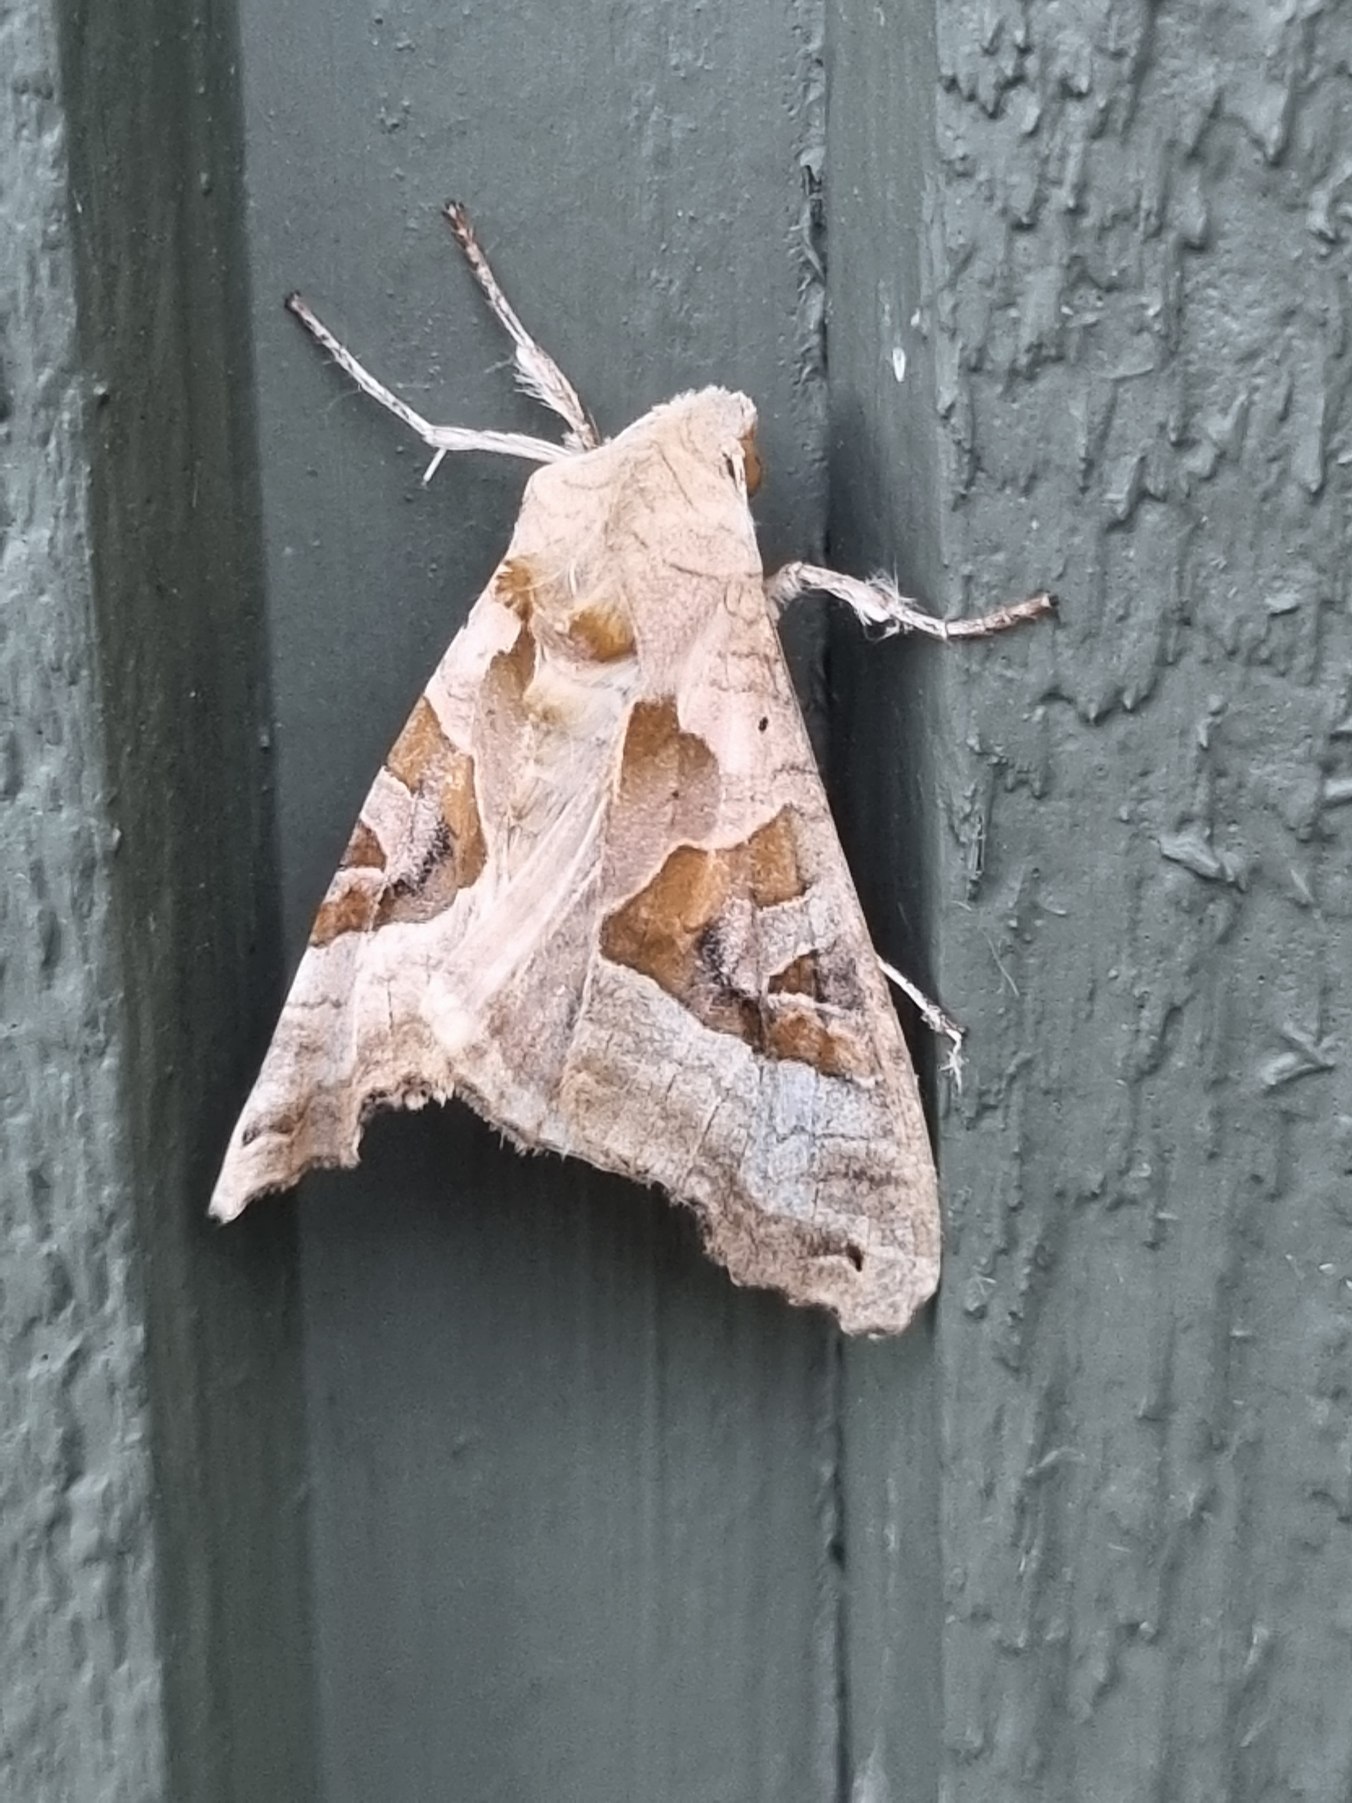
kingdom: Animalia
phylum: Arthropoda
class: Insecta
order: Lepidoptera
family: Noctuidae
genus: Phlogophora
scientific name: Phlogophora meticulosa
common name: Agatugle
